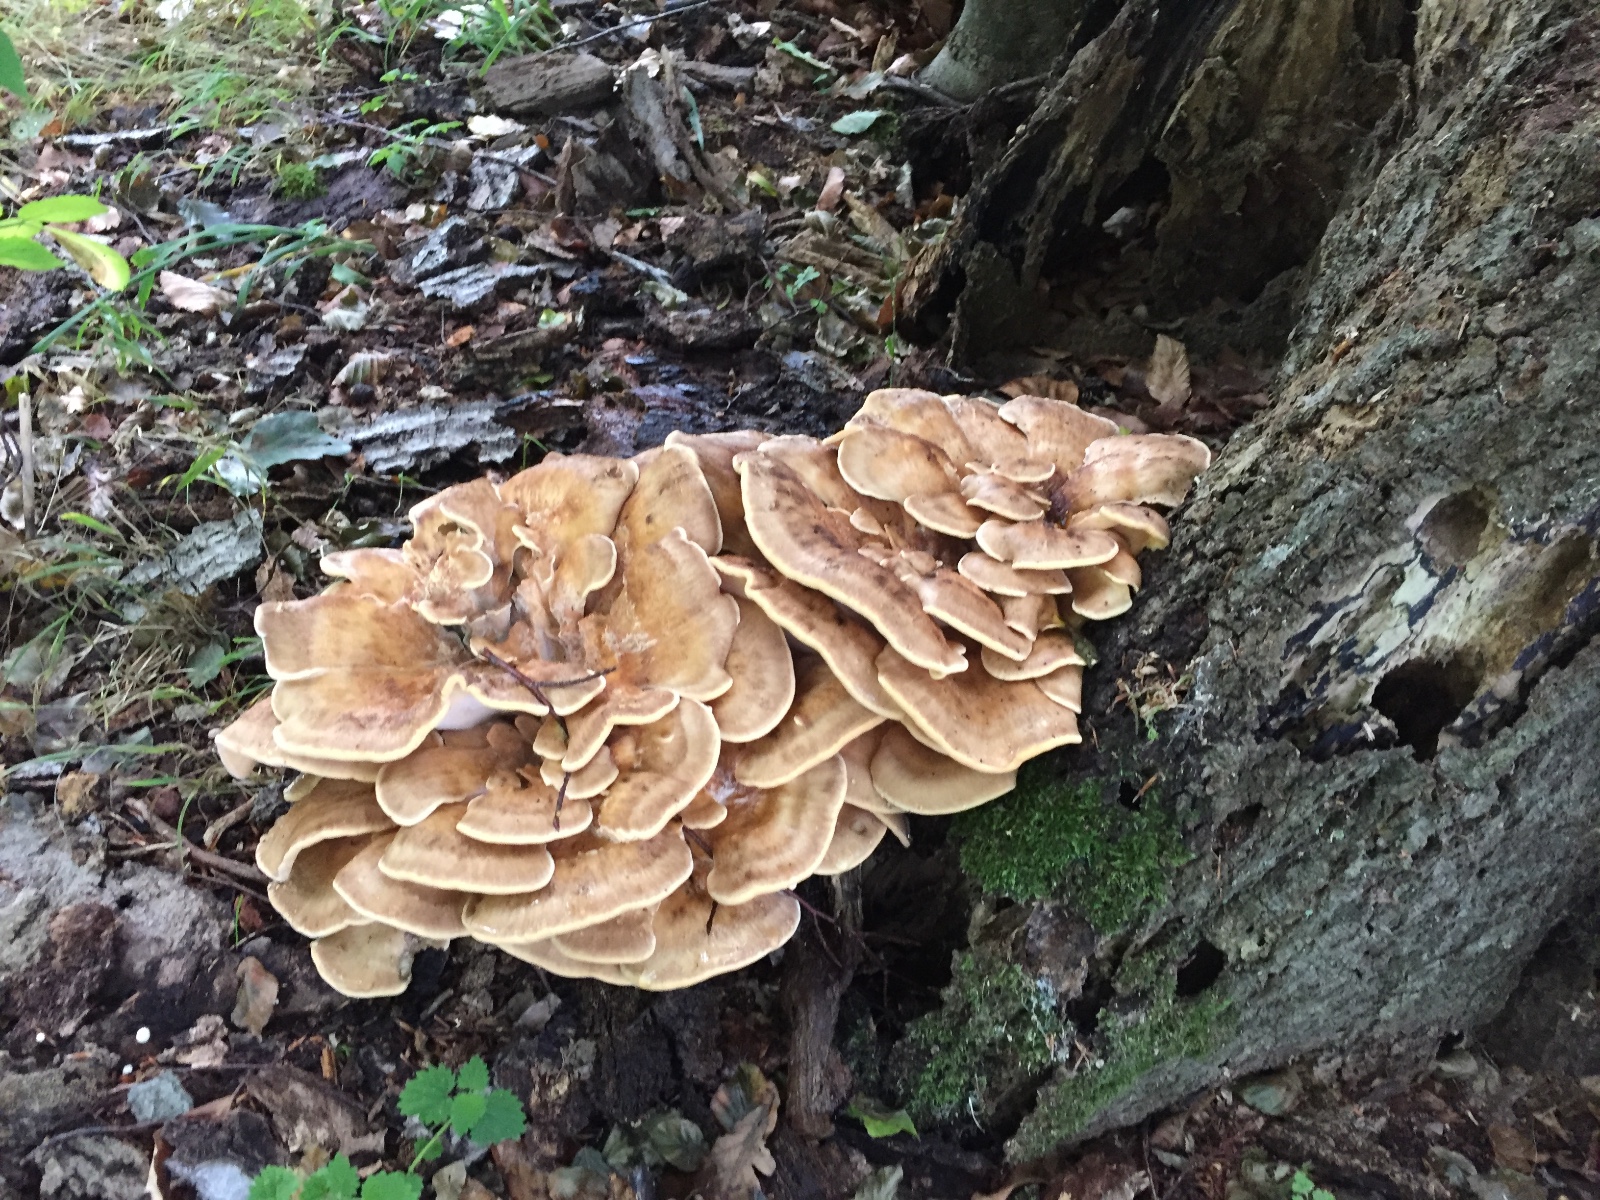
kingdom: Fungi
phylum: Basidiomycota
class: Agaricomycetes
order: Polyporales
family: Meripilaceae
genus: Meripilus
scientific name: Meripilus giganteus
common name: kæmpeporesvamp
